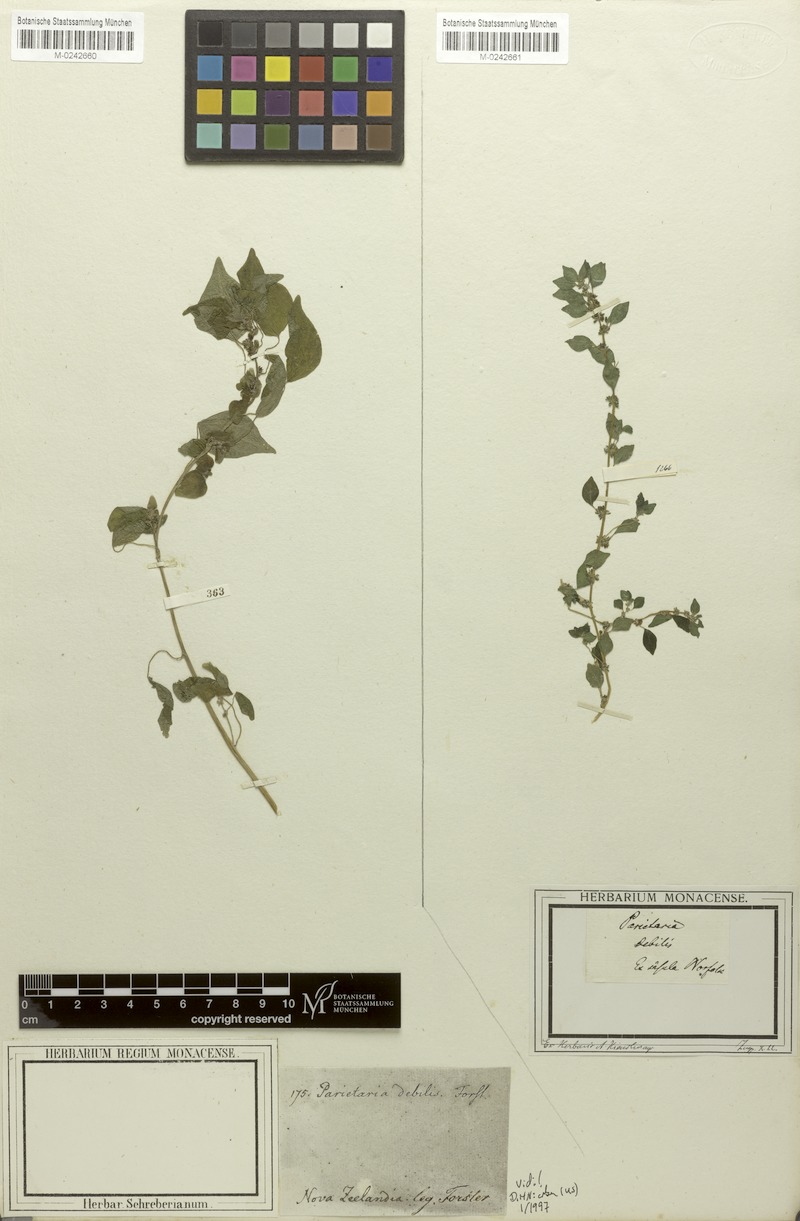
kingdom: Plantae
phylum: Tracheophyta
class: Magnoliopsida
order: Rosales
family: Urticaceae
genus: Parietaria
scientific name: Parietaria debilis
